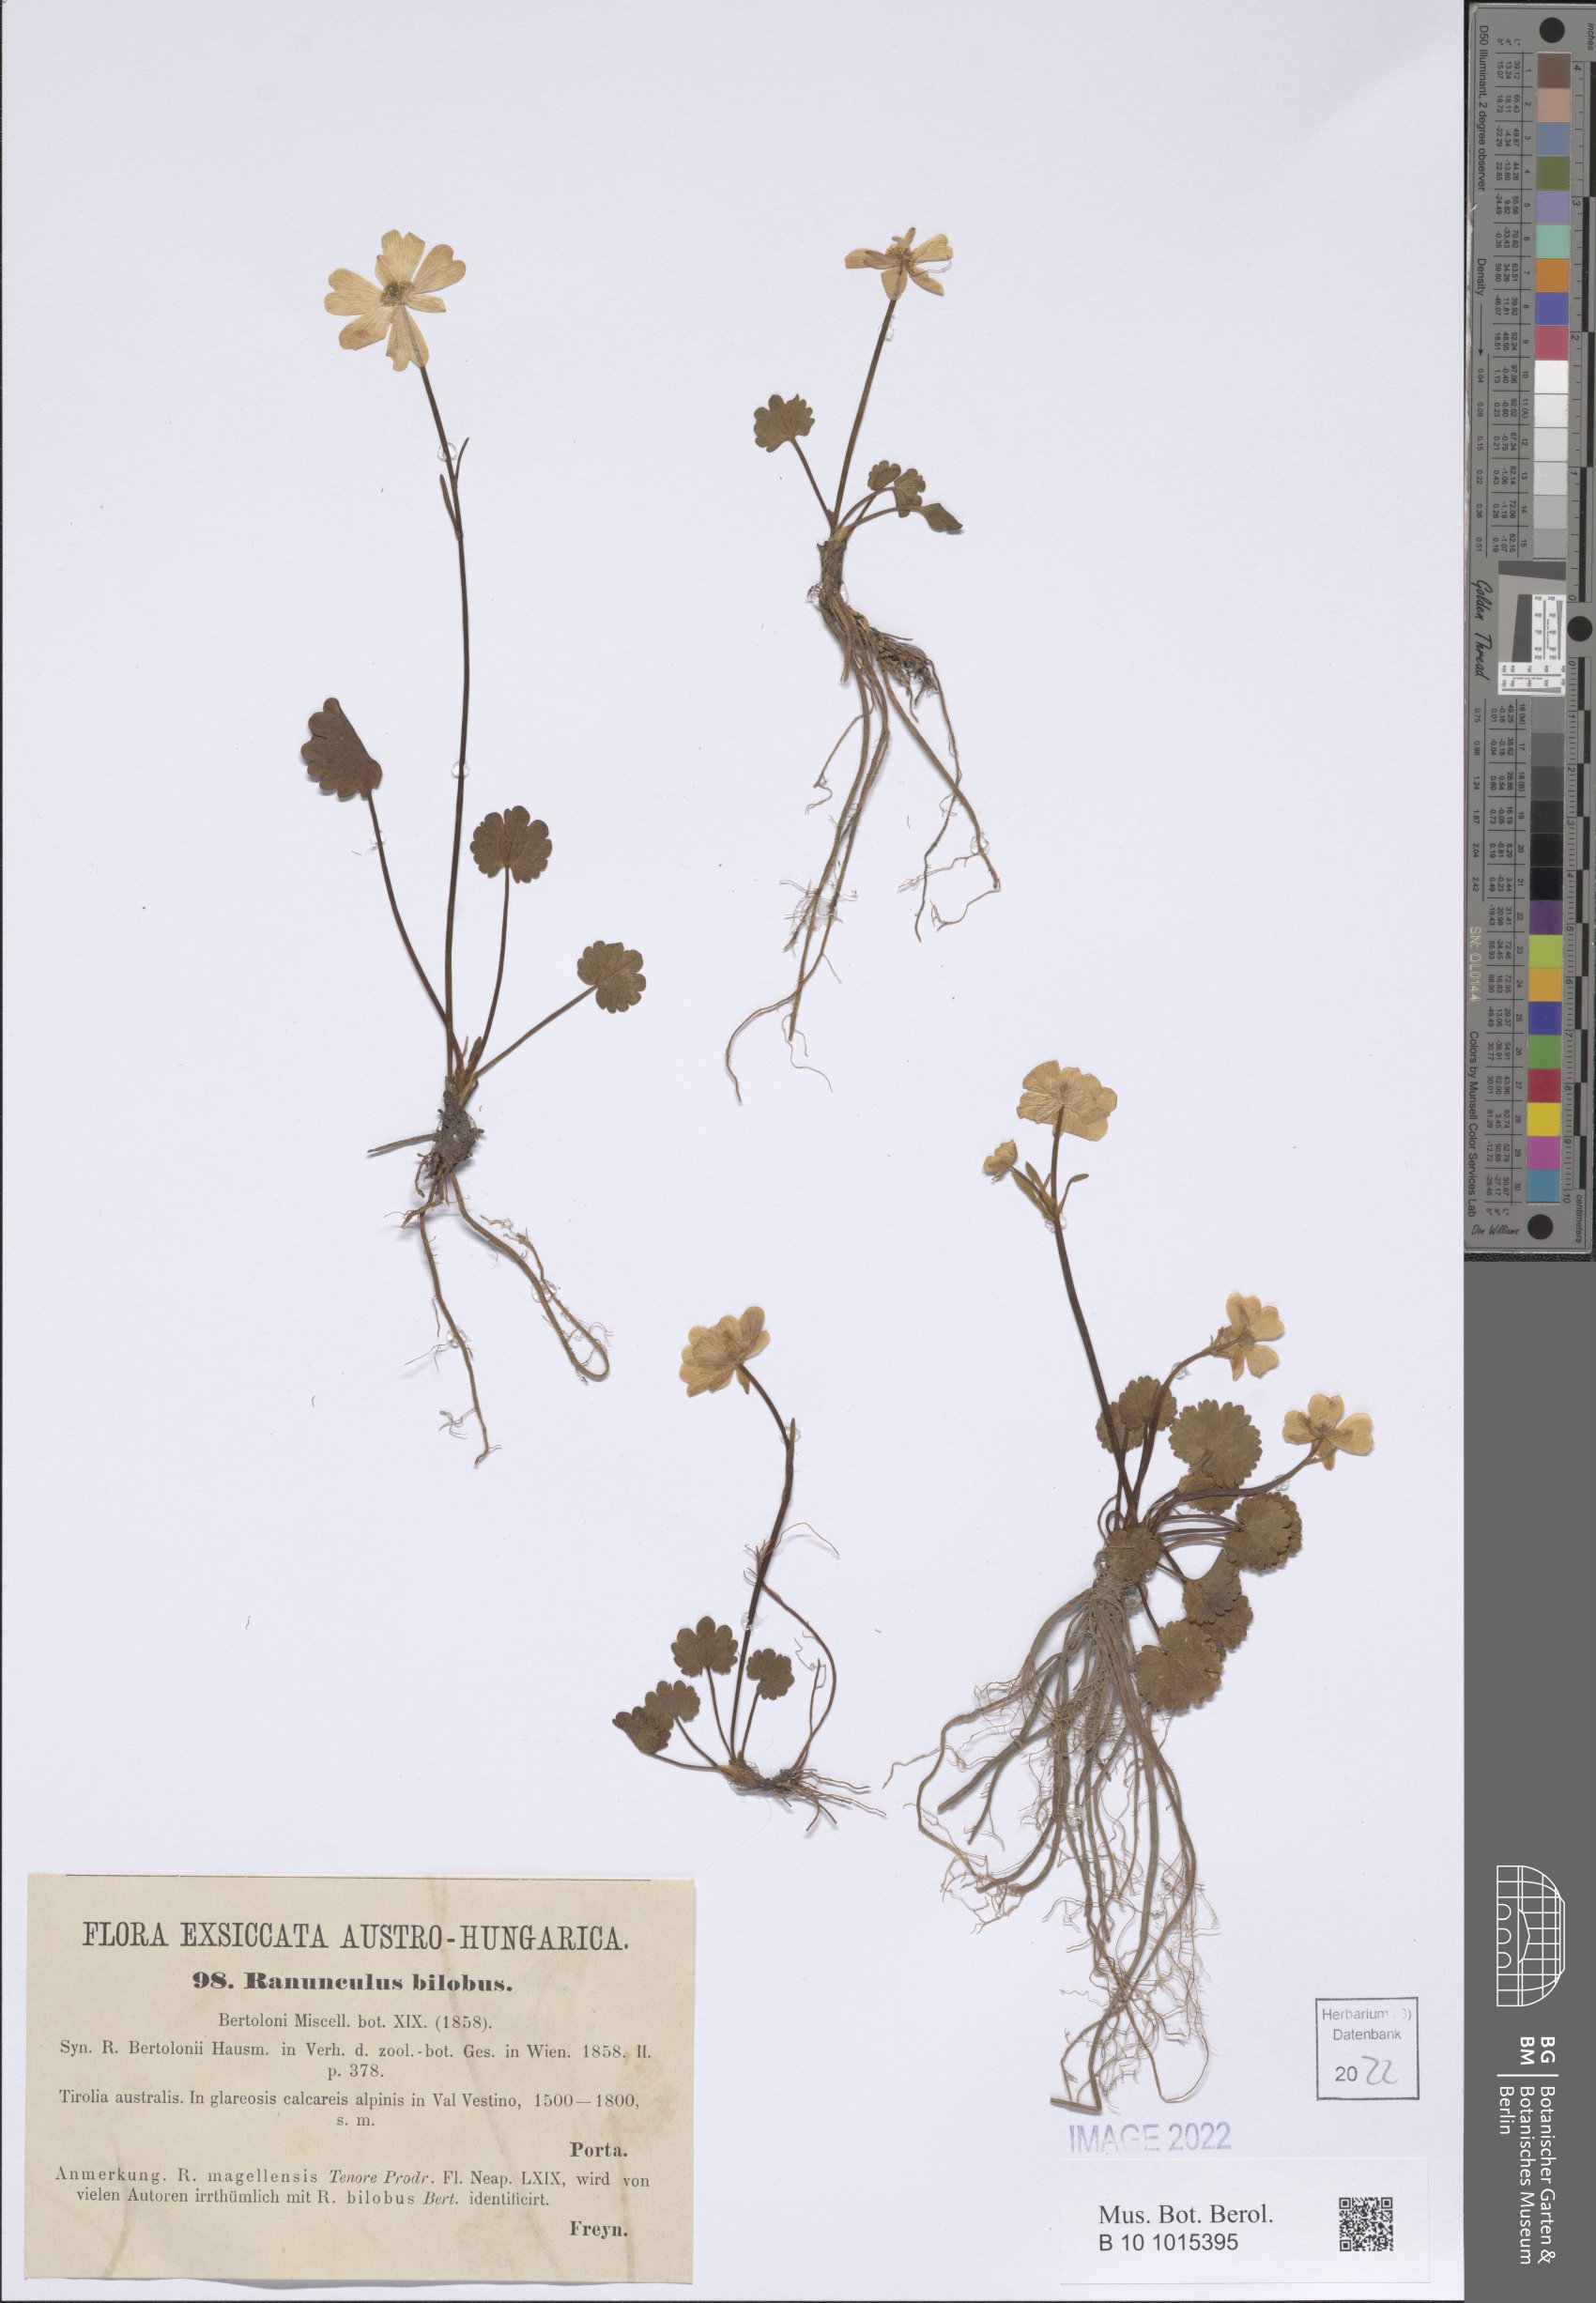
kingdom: Plantae
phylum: Tracheophyta
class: Magnoliopsida
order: Ranunculales
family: Ranunculaceae
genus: Ranunculus
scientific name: Ranunculus bilobus
